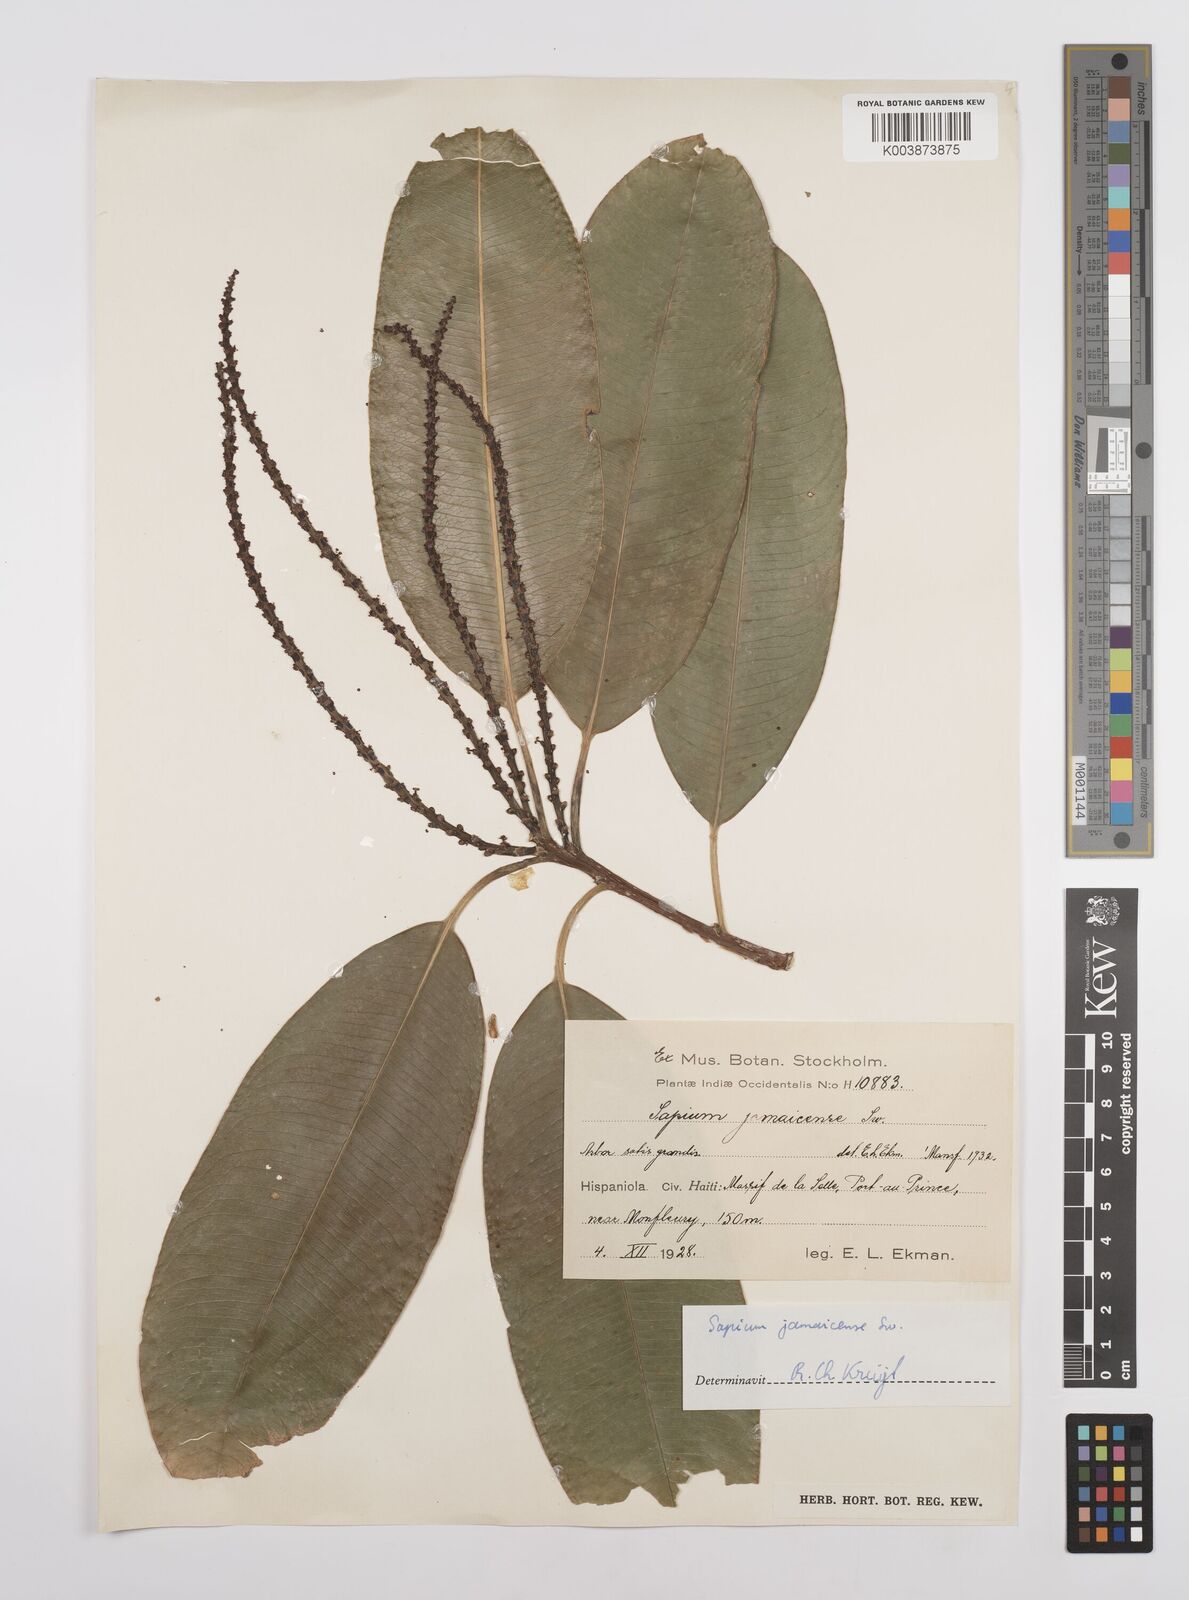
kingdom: Plantae
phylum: Tracheophyta
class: Magnoliopsida
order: Malpighiales
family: Euphorbiaceae
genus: Sapium
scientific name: Sapium glandulosum
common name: Milktree
